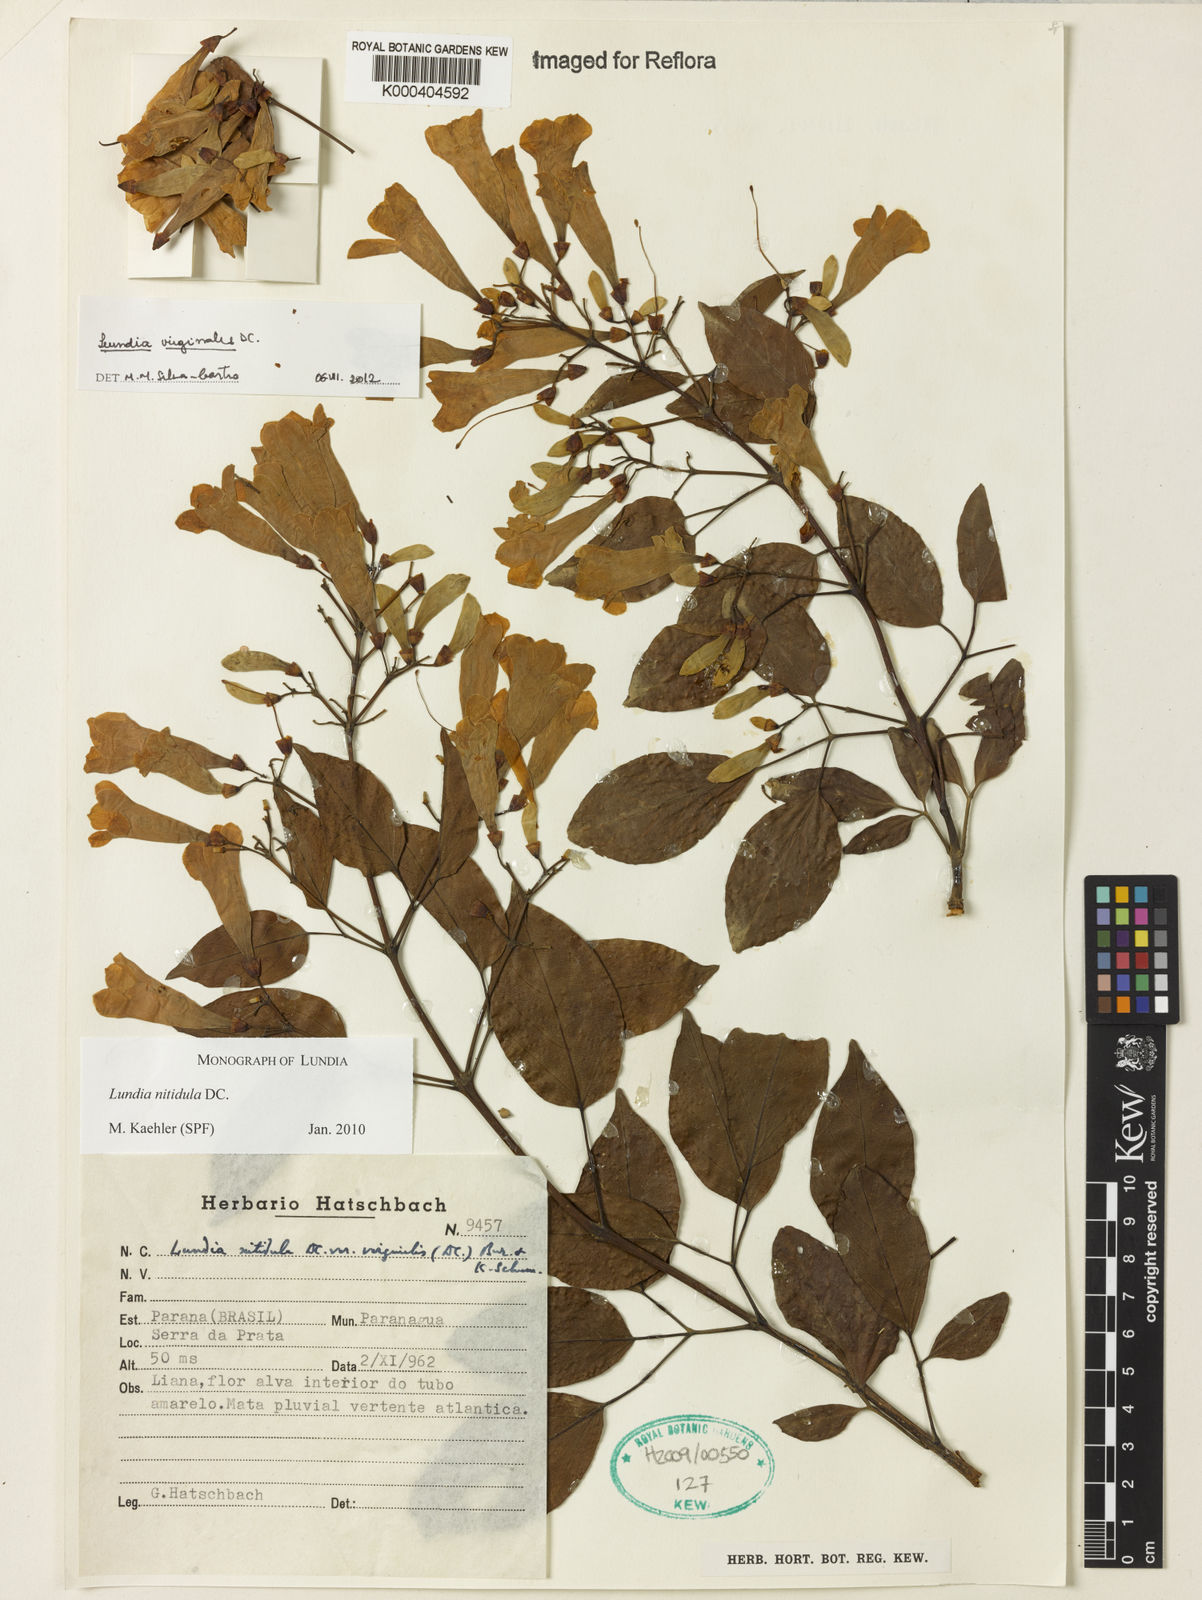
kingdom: Plantae
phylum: Tracheophyta
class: Magnoliopsida
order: Lamiales
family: Bignoniaceae
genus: Lundia
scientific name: Lundia virginalis
